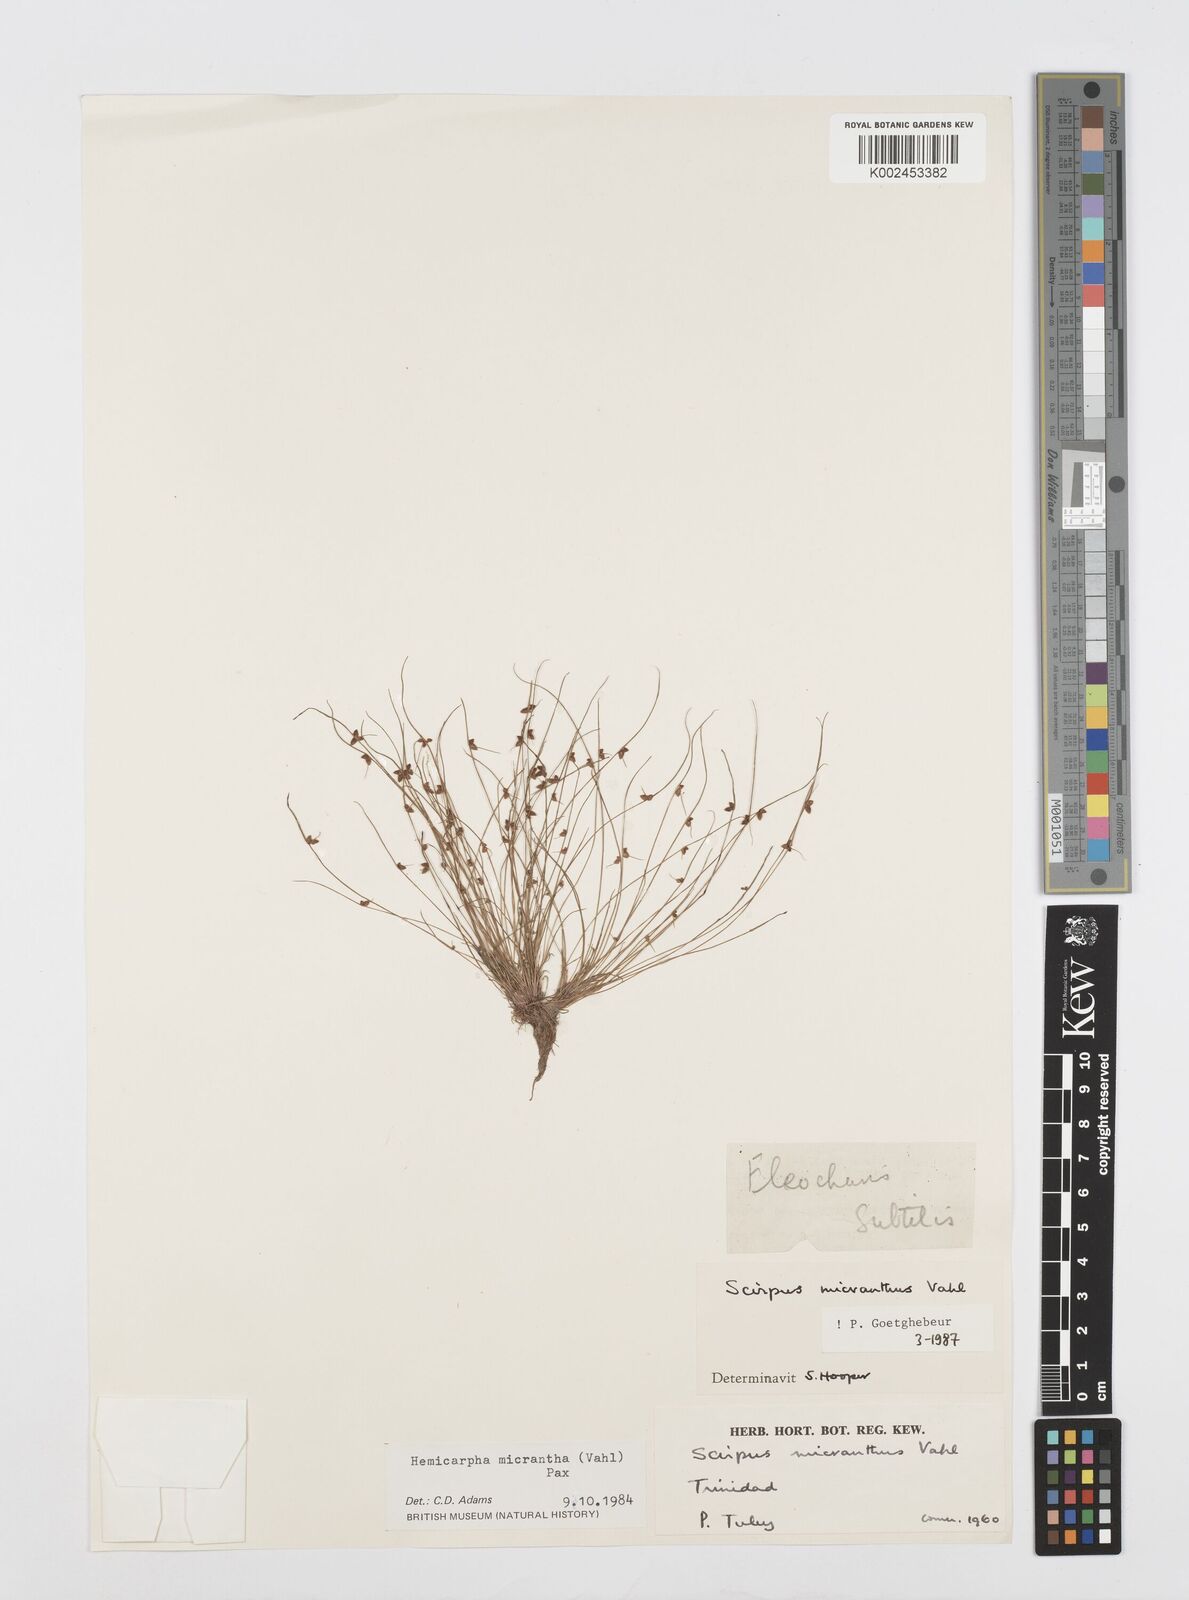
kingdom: Plantae
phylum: Tracheophyta
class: Liliopsida
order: Poales
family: Cyperaceae
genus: Cyperus
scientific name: Cyperus
